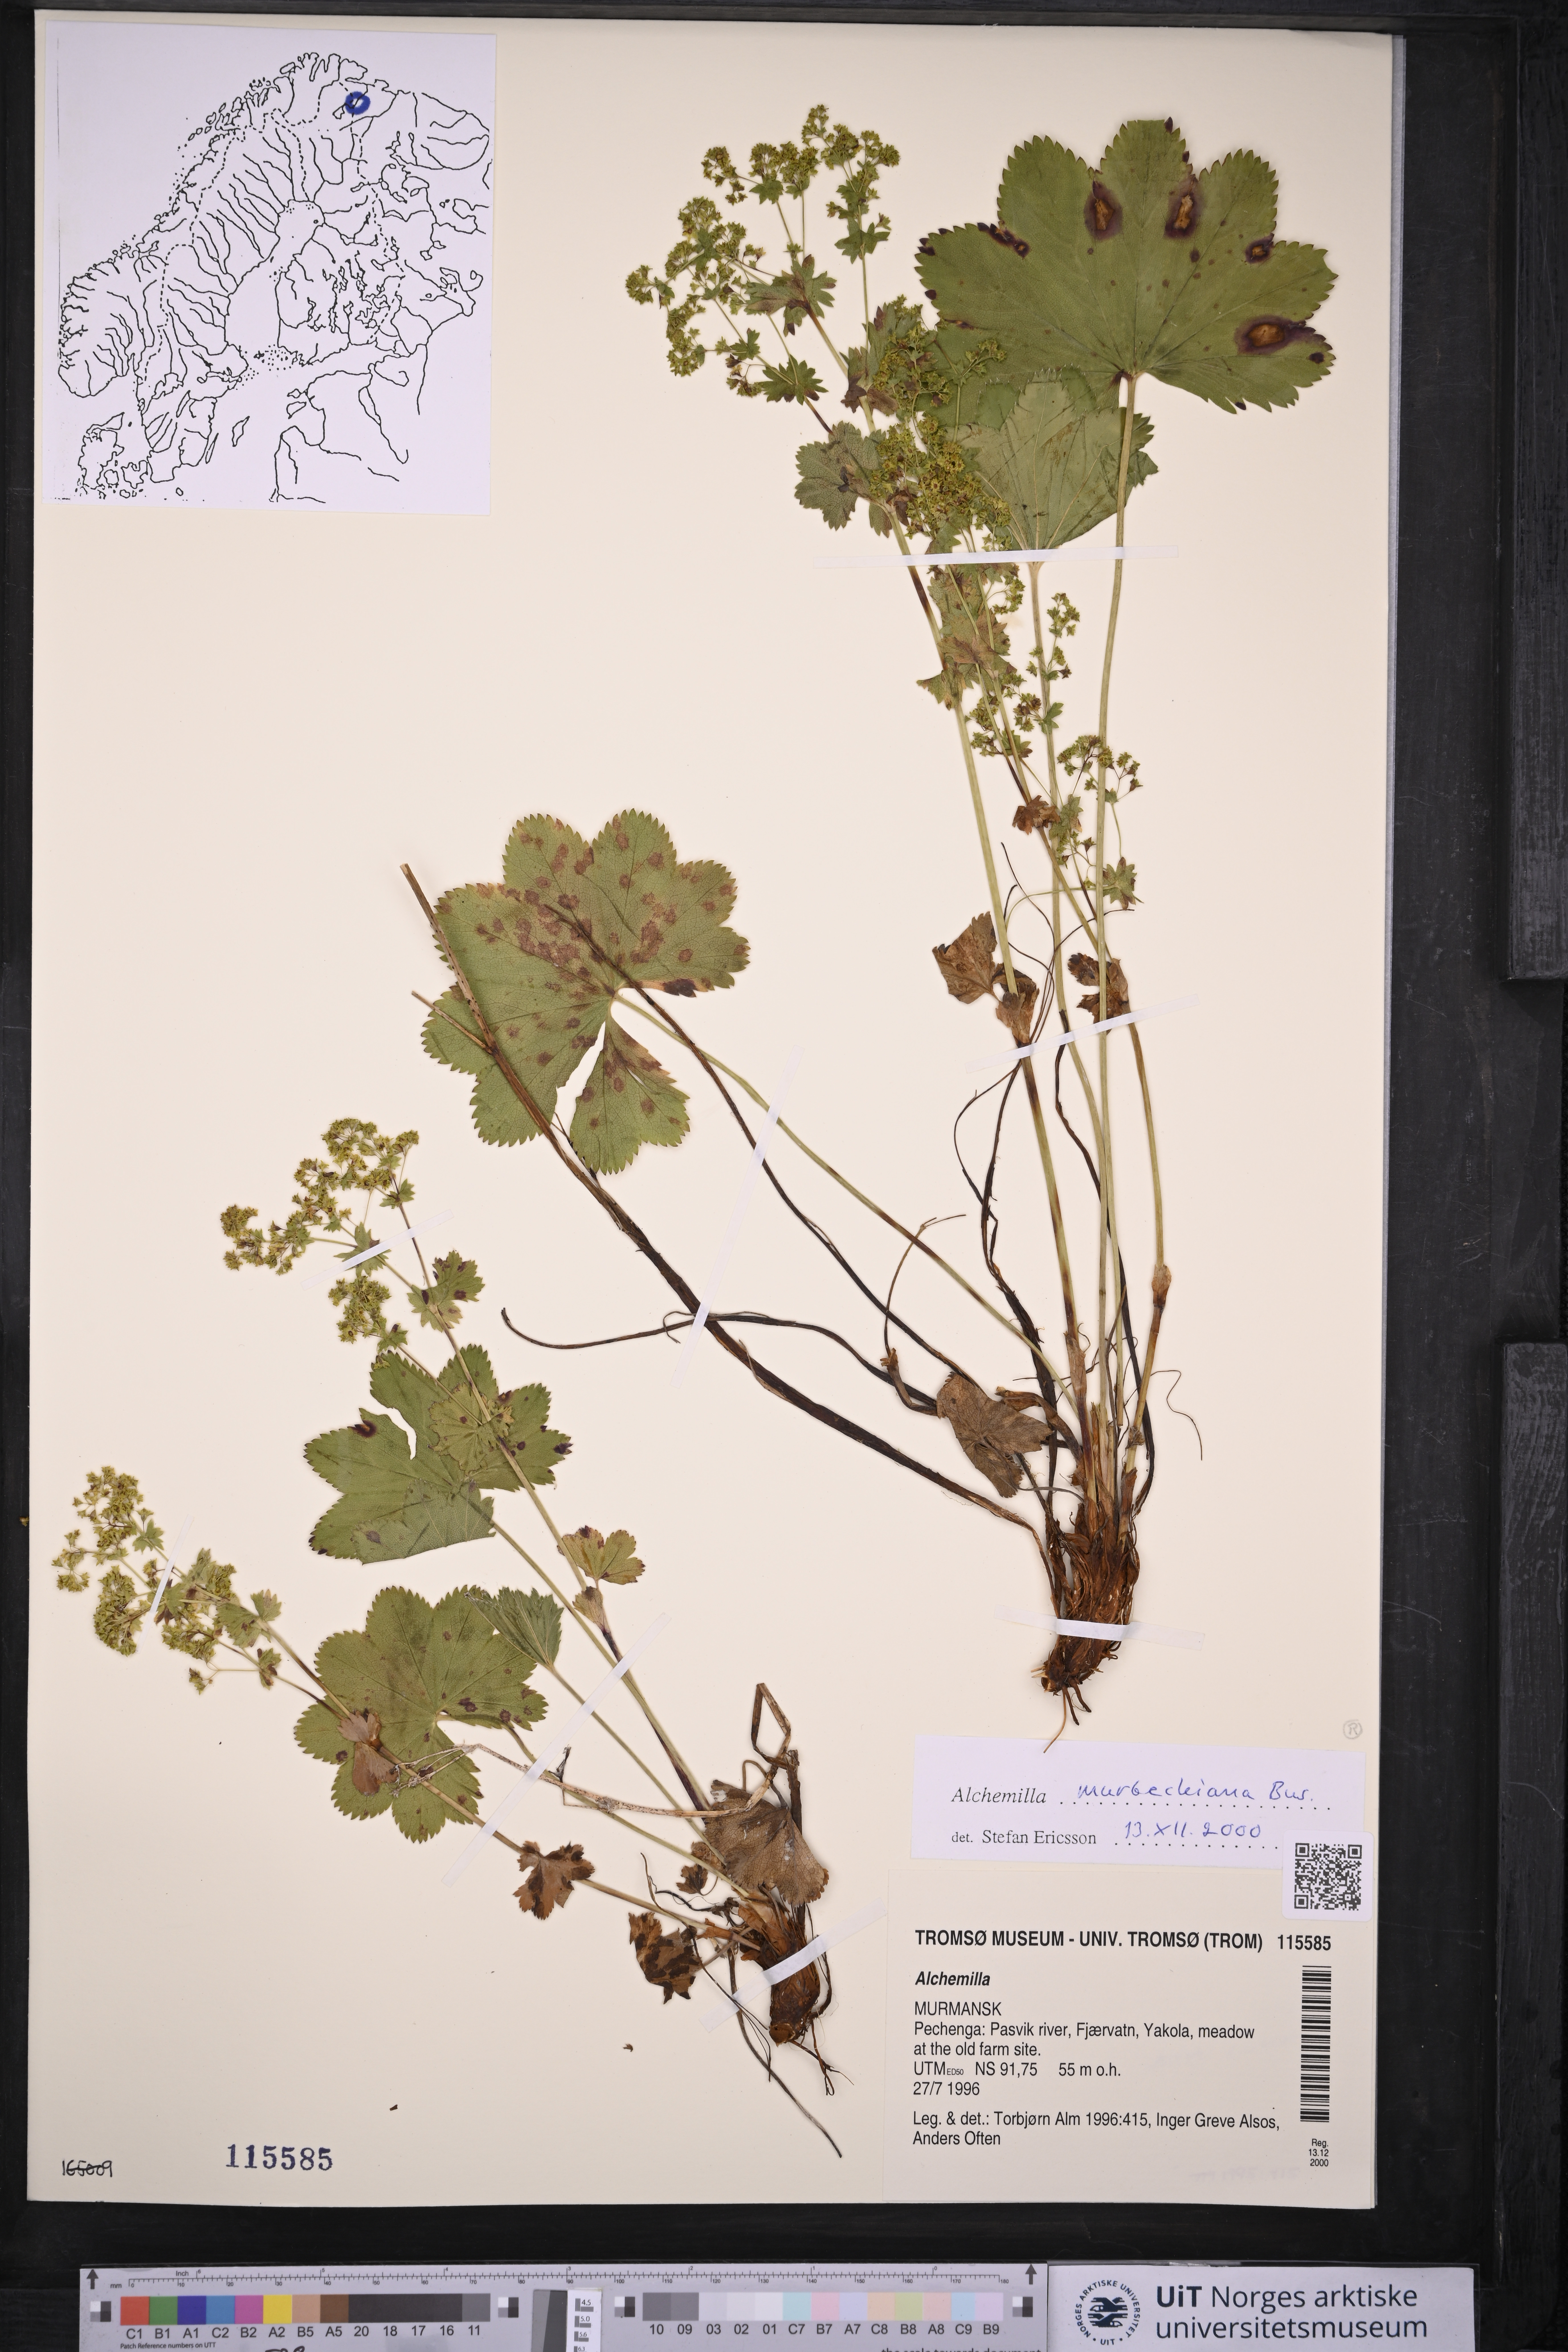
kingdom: Plantae
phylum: Tracheophyta
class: Magnoliopsida
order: Rosales
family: Rosaceae
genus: Alchemilla
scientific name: Alchemilla murbeckiana
